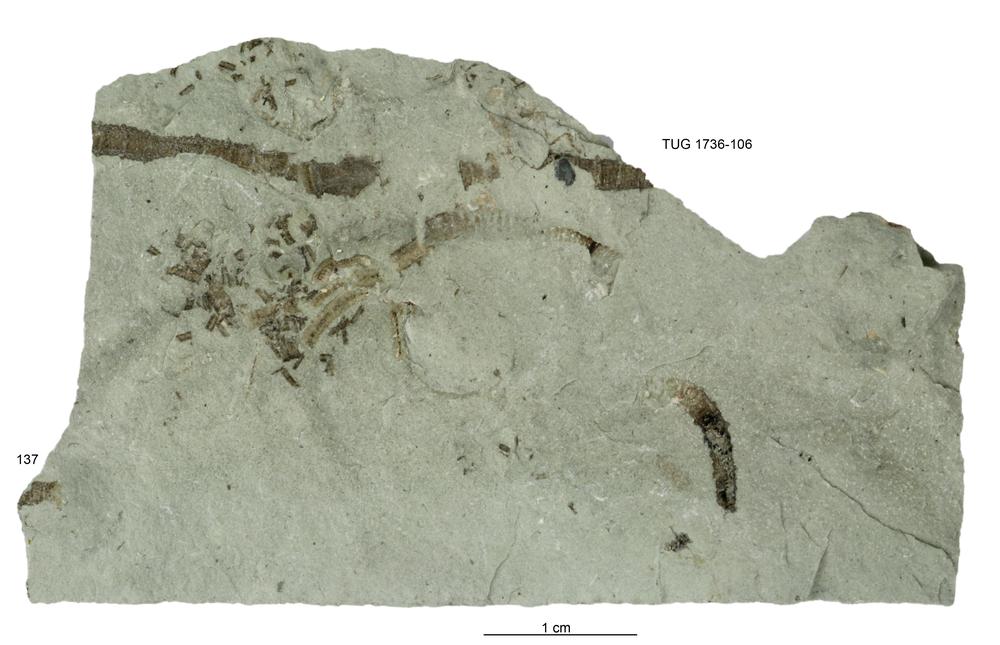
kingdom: Animalia
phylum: Echinodermata
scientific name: Echinodermata
